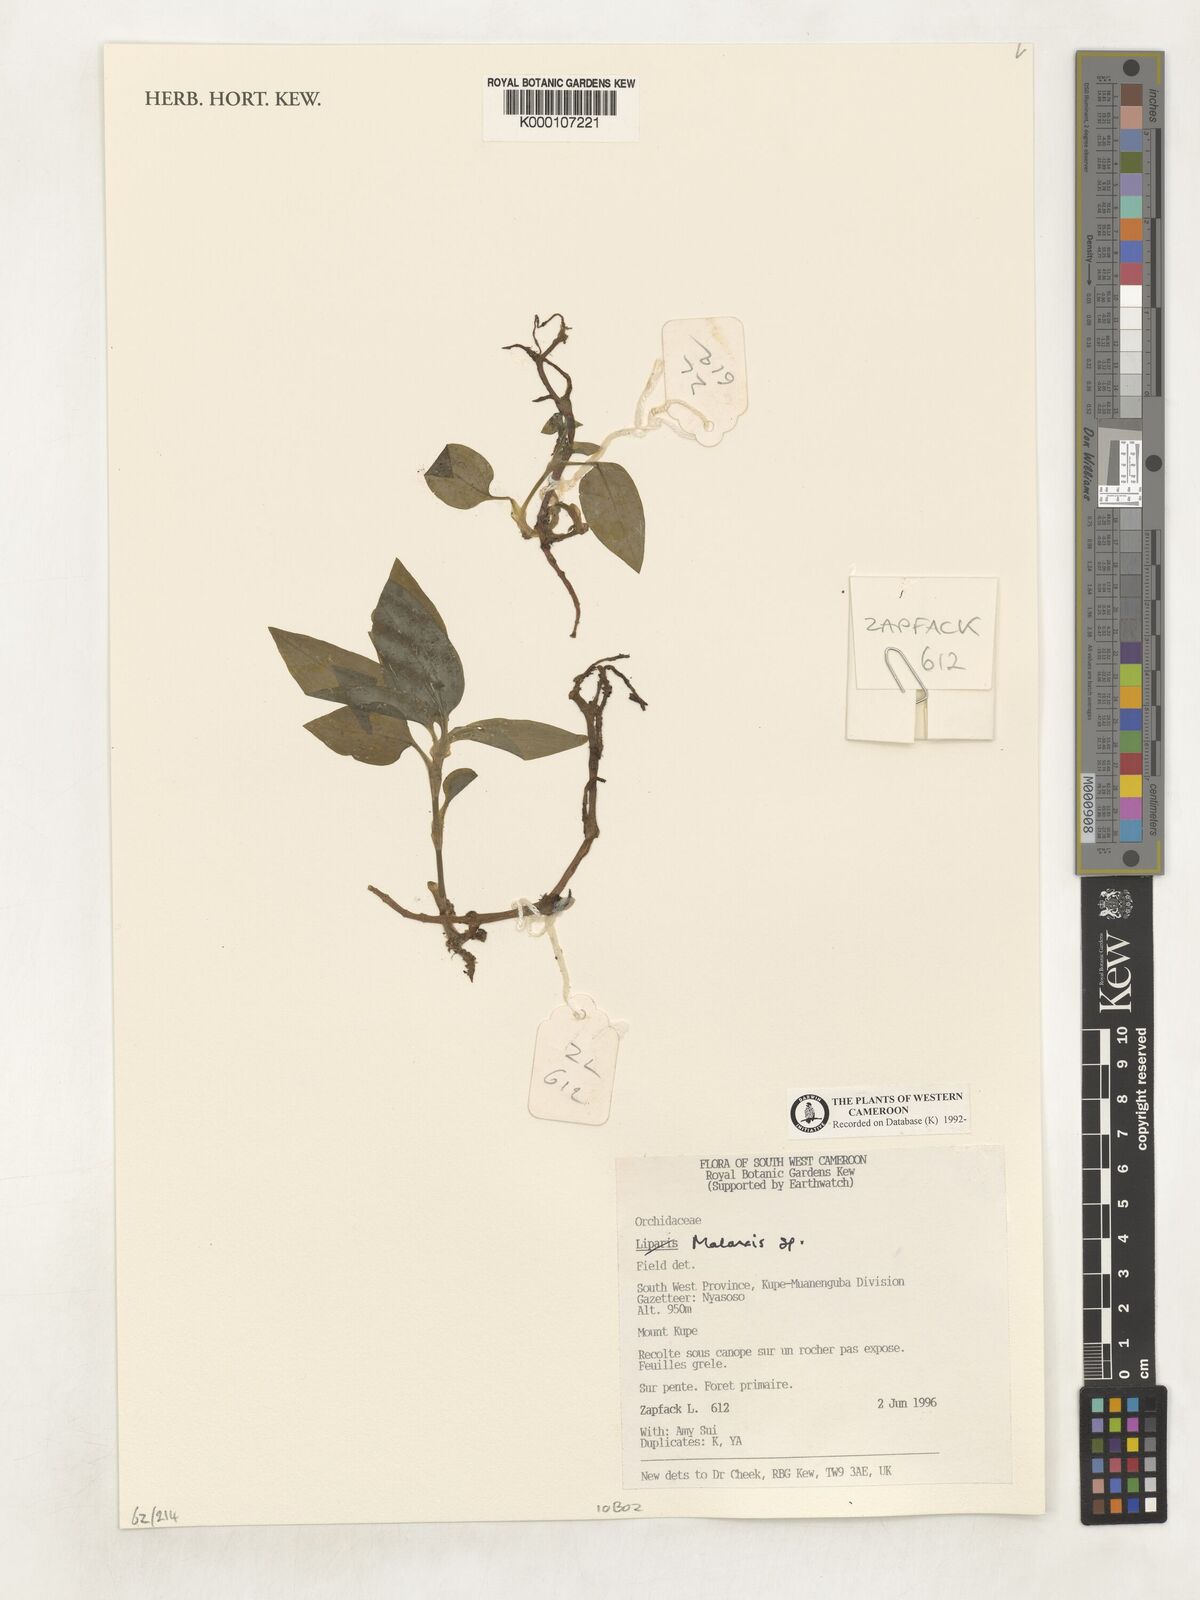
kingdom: Plantae
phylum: Tracheophyta
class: Liliopsida
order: Asparagales
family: Orchidaceae
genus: Malaxis
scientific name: Malaxis
